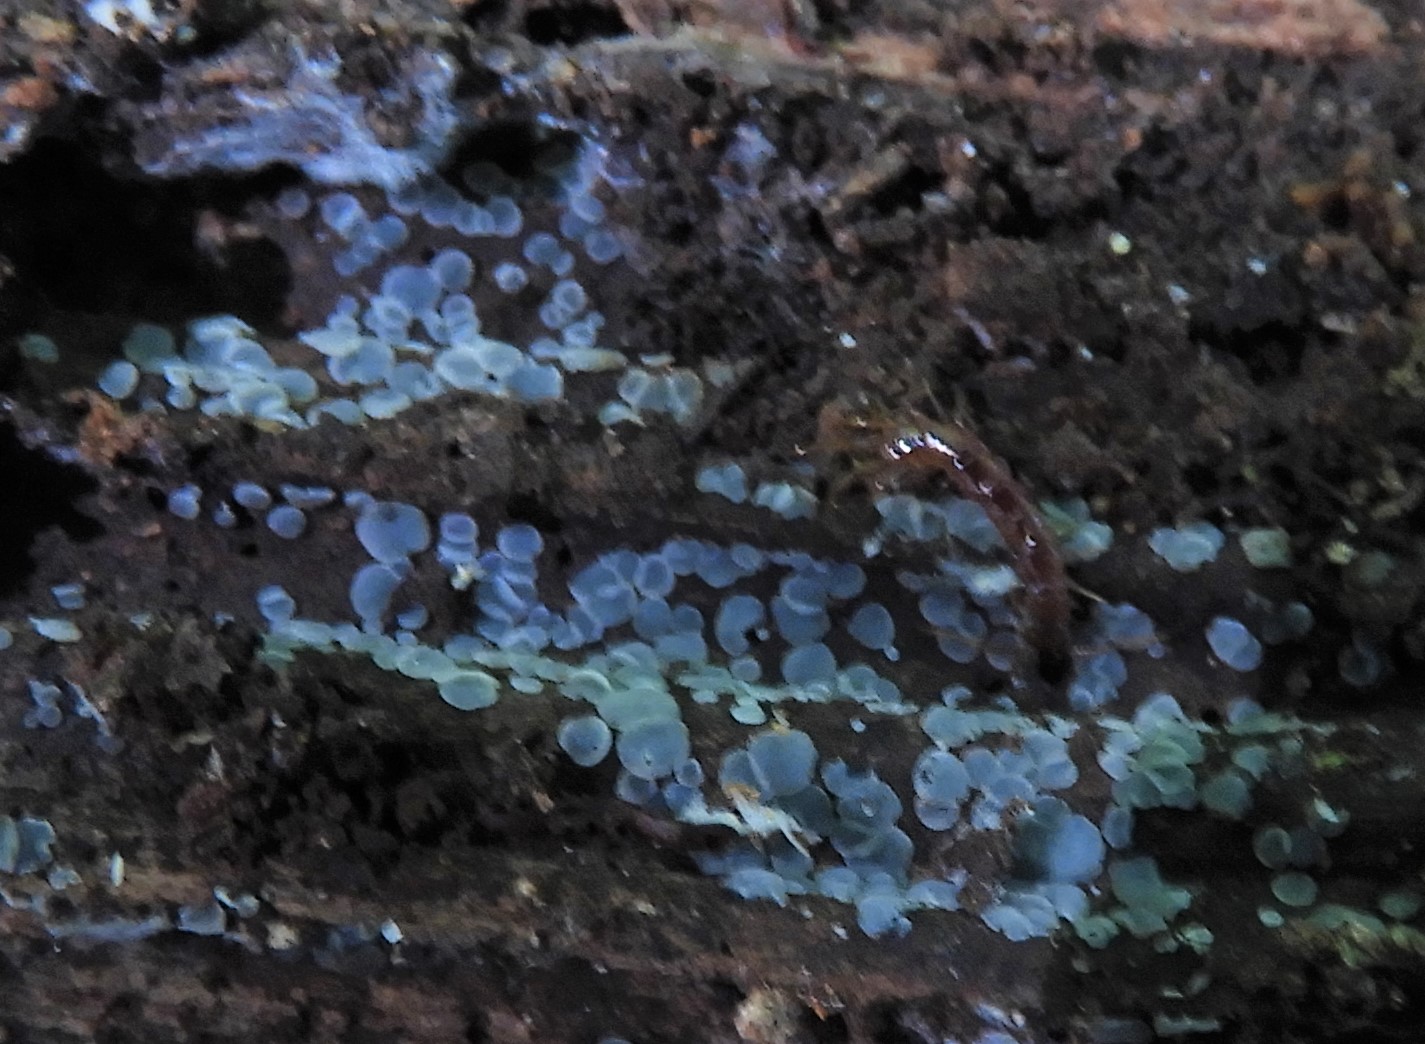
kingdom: Fungi
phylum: Ascomycota
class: Leotiomycetes
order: Helotiales
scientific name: Helotiales
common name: stilkskiveordenen
